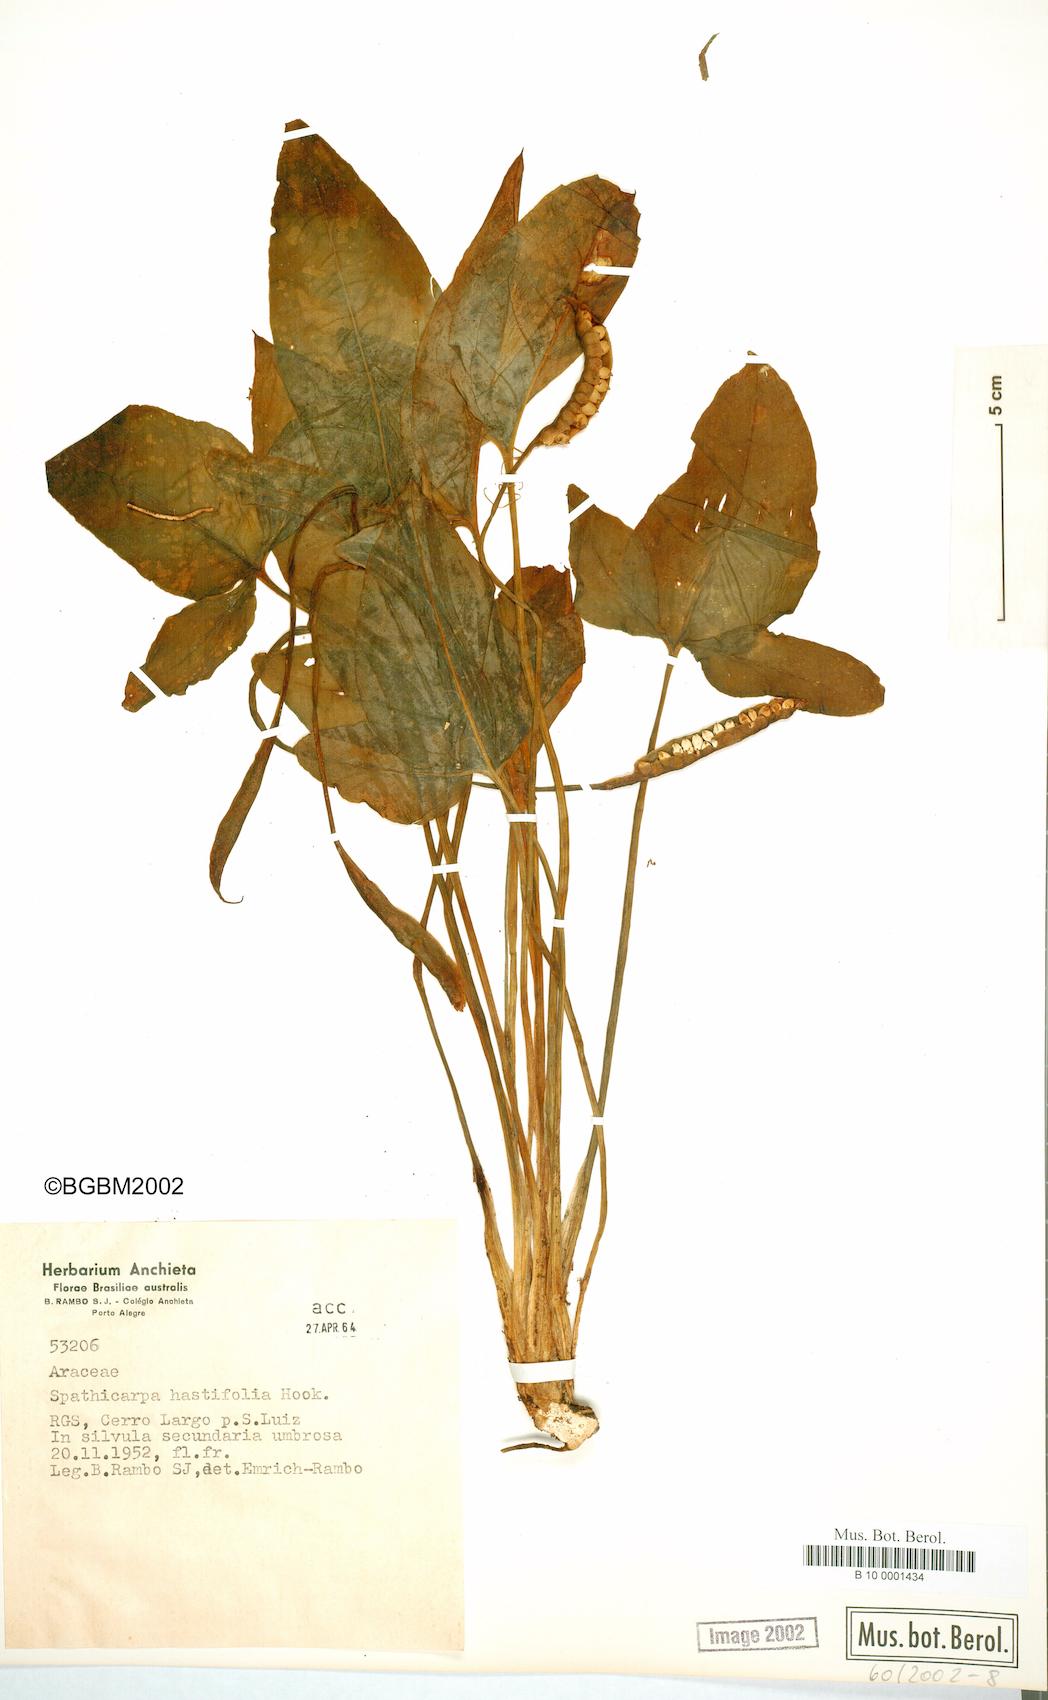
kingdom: Plantae
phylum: Tracheophyta
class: Liliopsida
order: Alismatales
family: Araceae
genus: Spathicarpa
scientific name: Spathicarpa hastifolia
